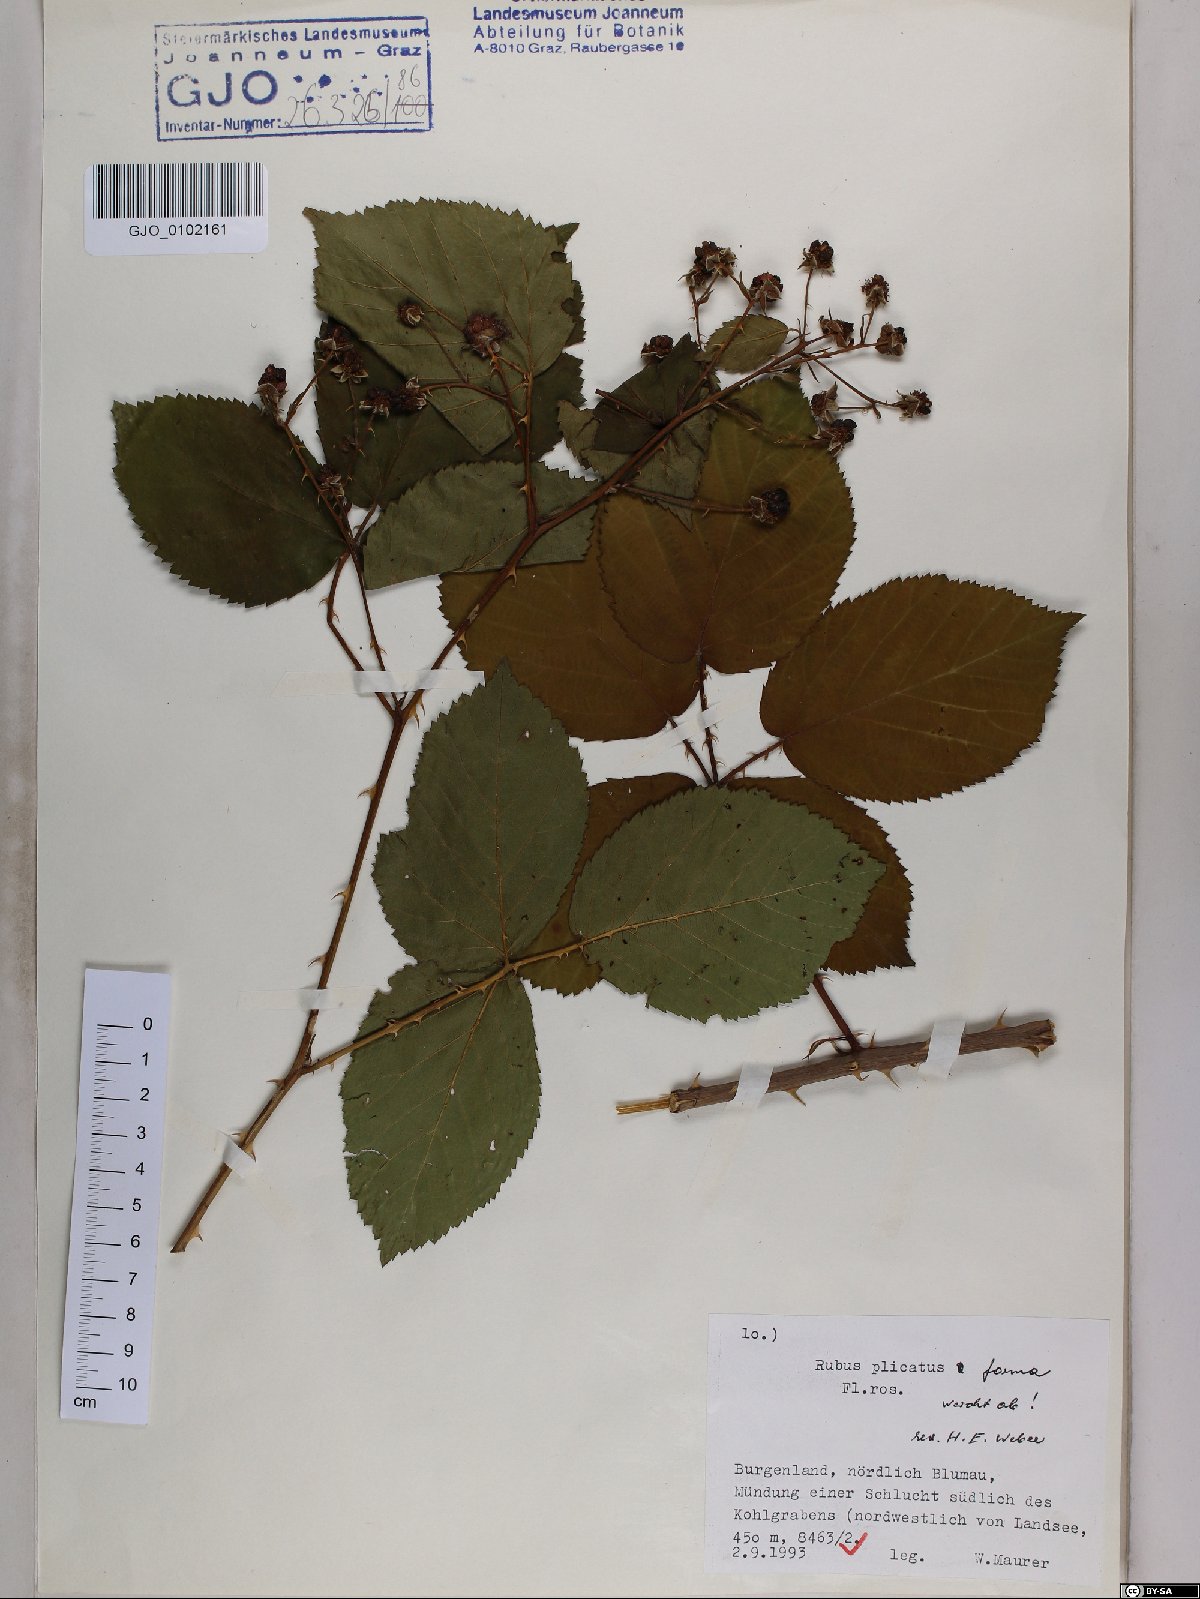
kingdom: Plantae
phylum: Tracheophyta
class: Magnoliopsida
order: Rosales
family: Rosaceae
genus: Rubus
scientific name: Rubus plicatus
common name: Plaited-leaved bramble
